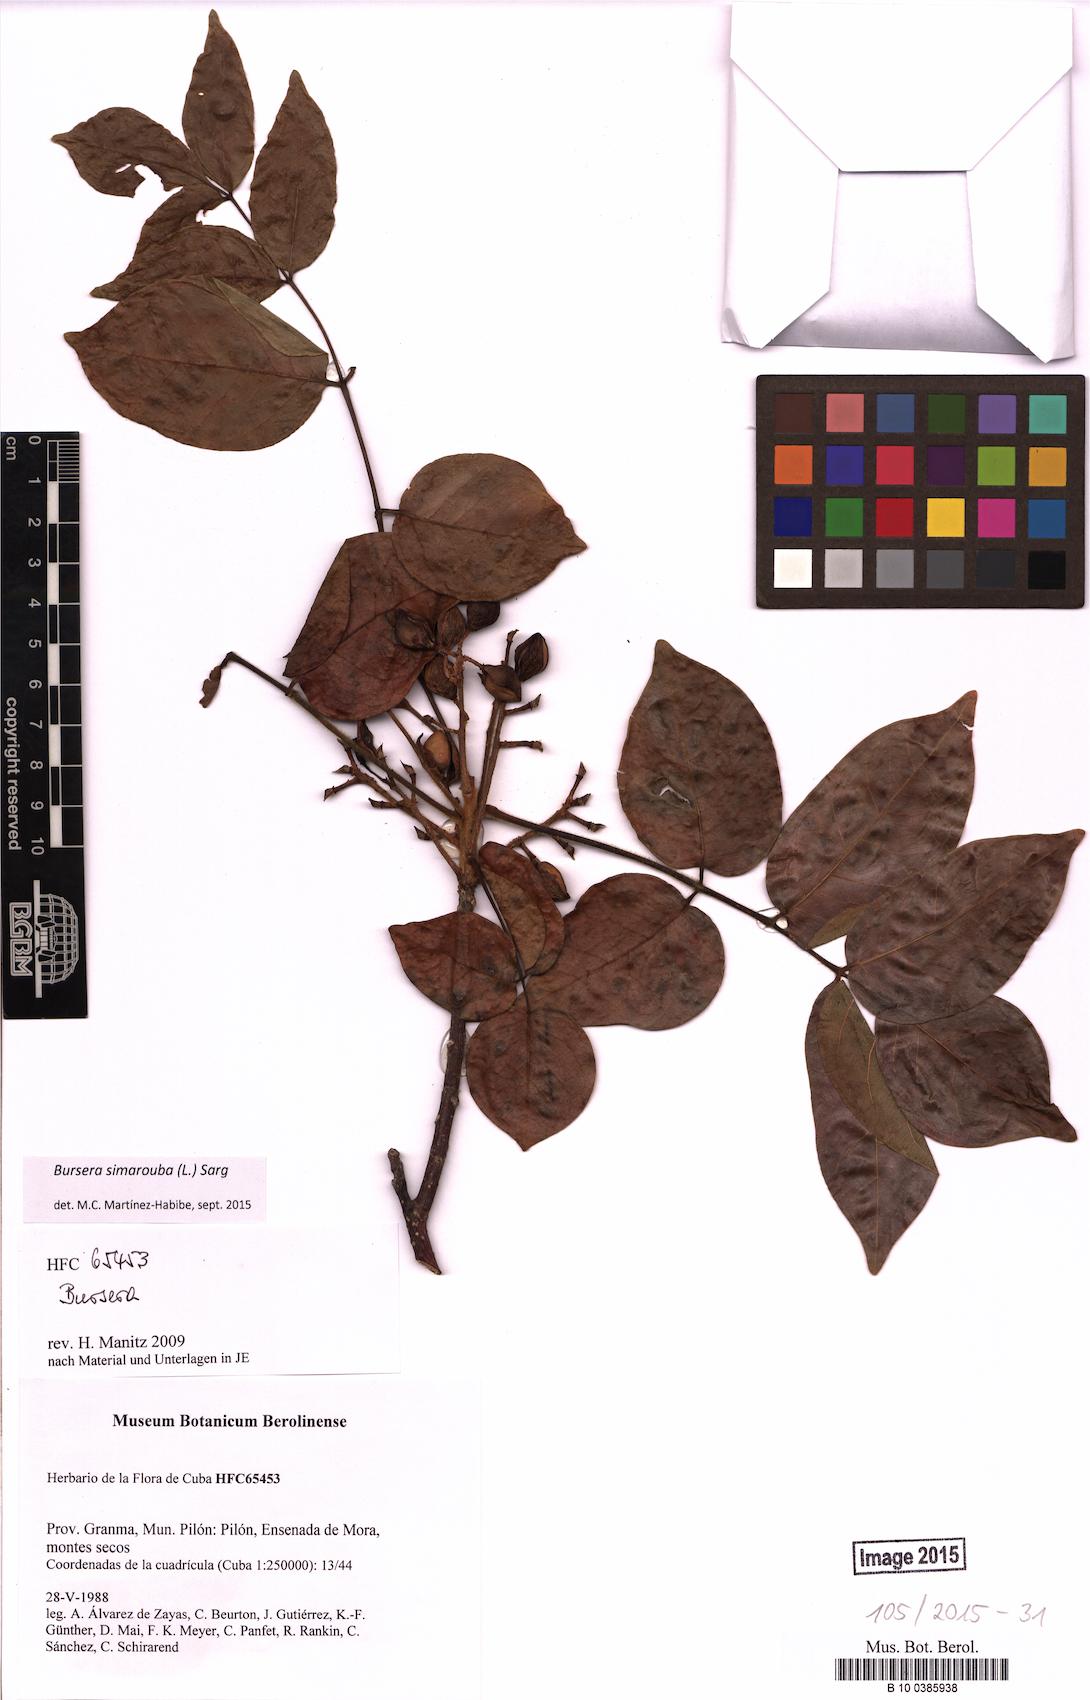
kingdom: Plantae
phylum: Tracheophyta
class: Magnoliopsida
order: Sapindales
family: Burseraceae
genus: Bursera
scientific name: Bursera simaruba
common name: Turpentine tree
